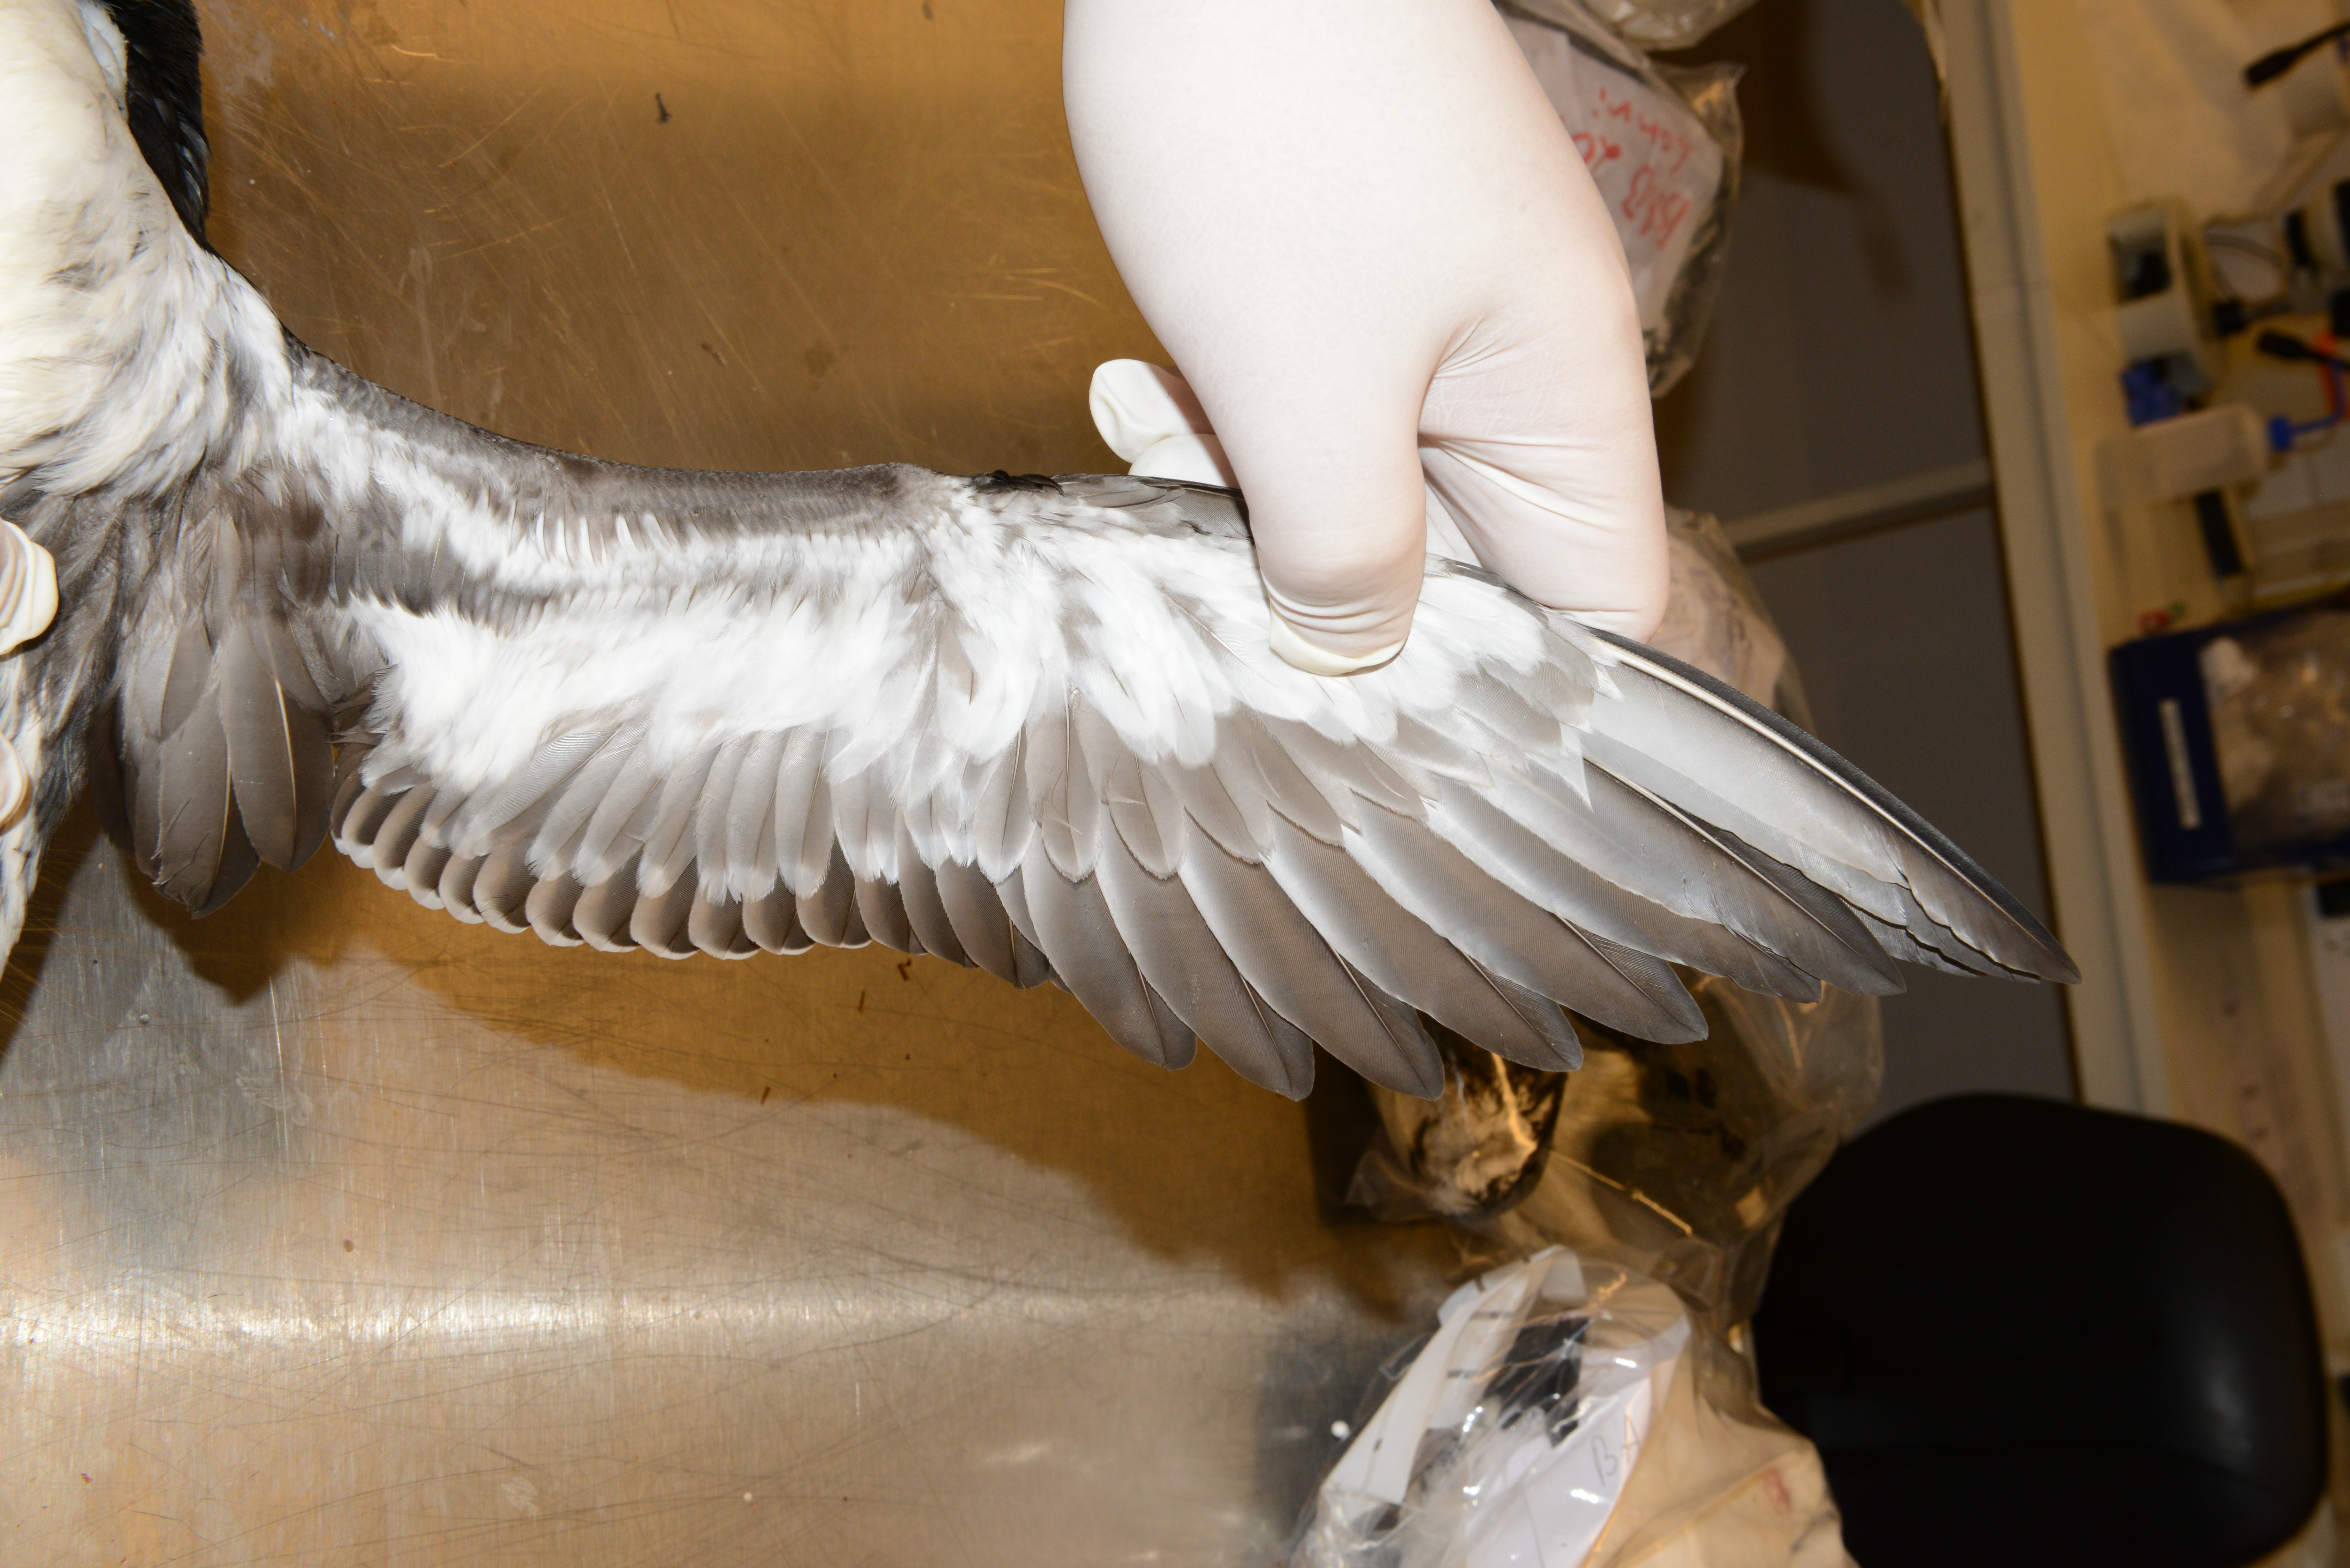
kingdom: Animalia
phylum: Chordata
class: Aves
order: Charadriiformes
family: Alcidae
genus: Uria
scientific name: Uria aalge
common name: Common murre
